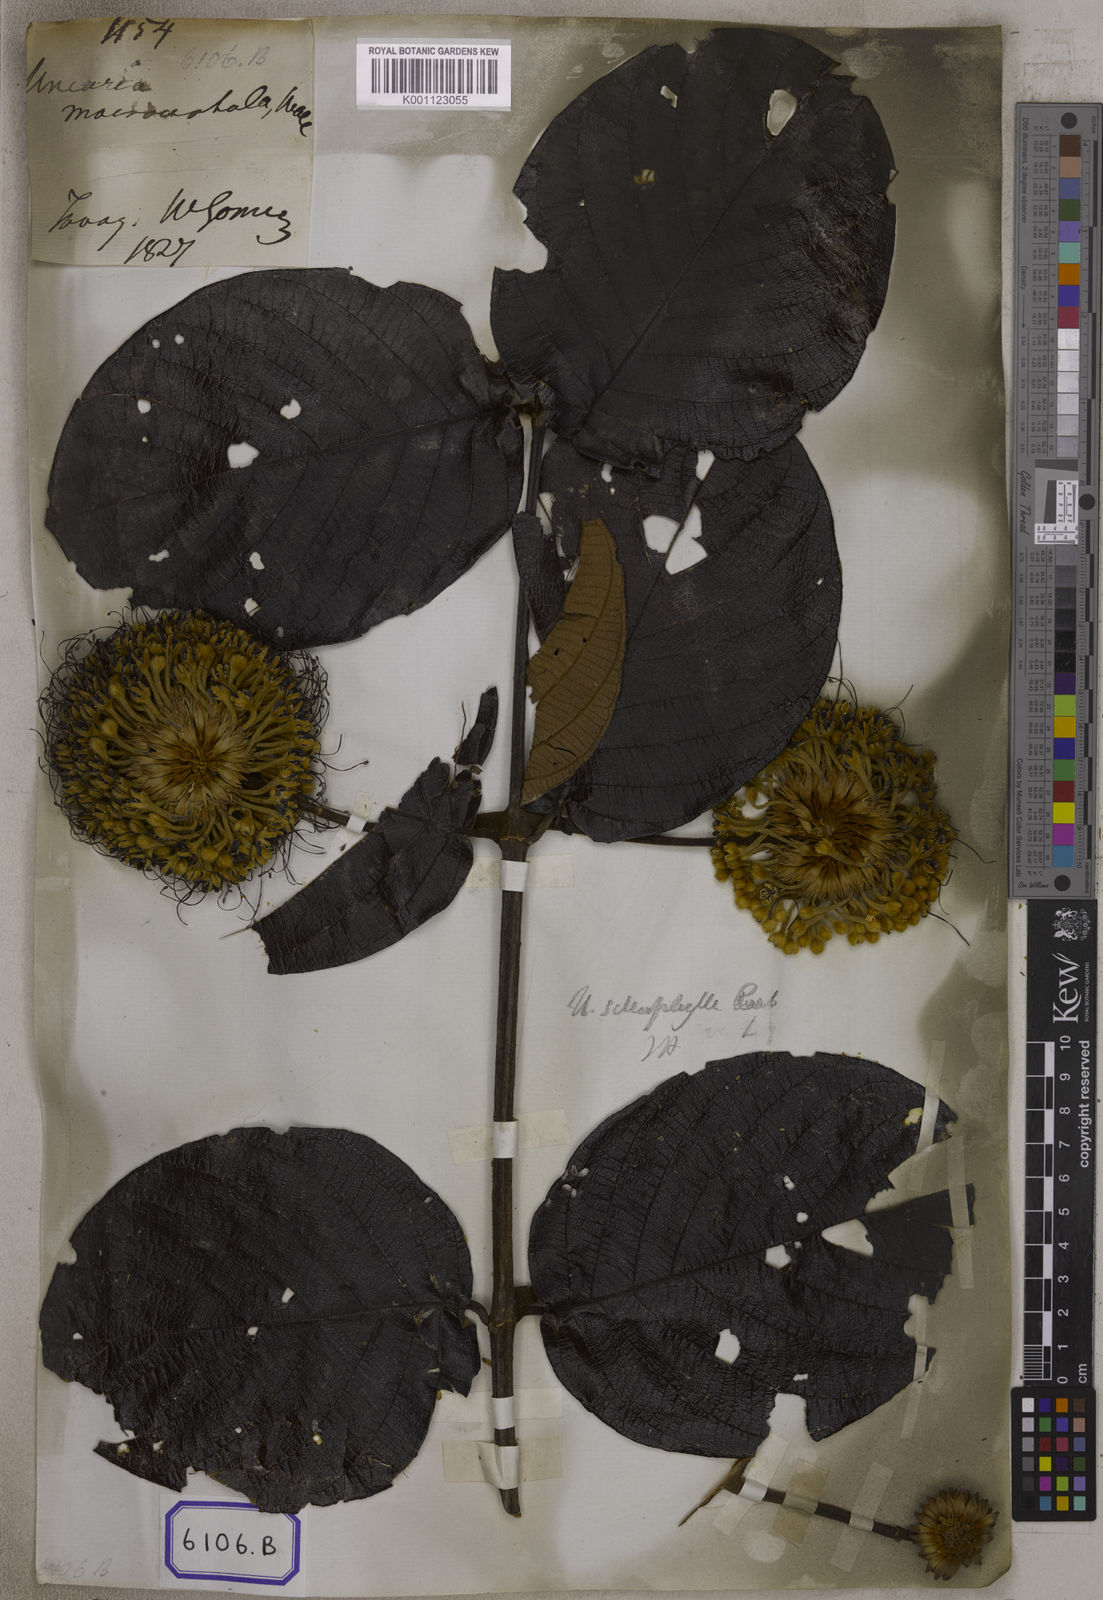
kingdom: Plantae
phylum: Tracheophyta
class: Magnoliopsida
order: Gentianales
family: Rubiaceae
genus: Uncaria
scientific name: Uncaria cordata
